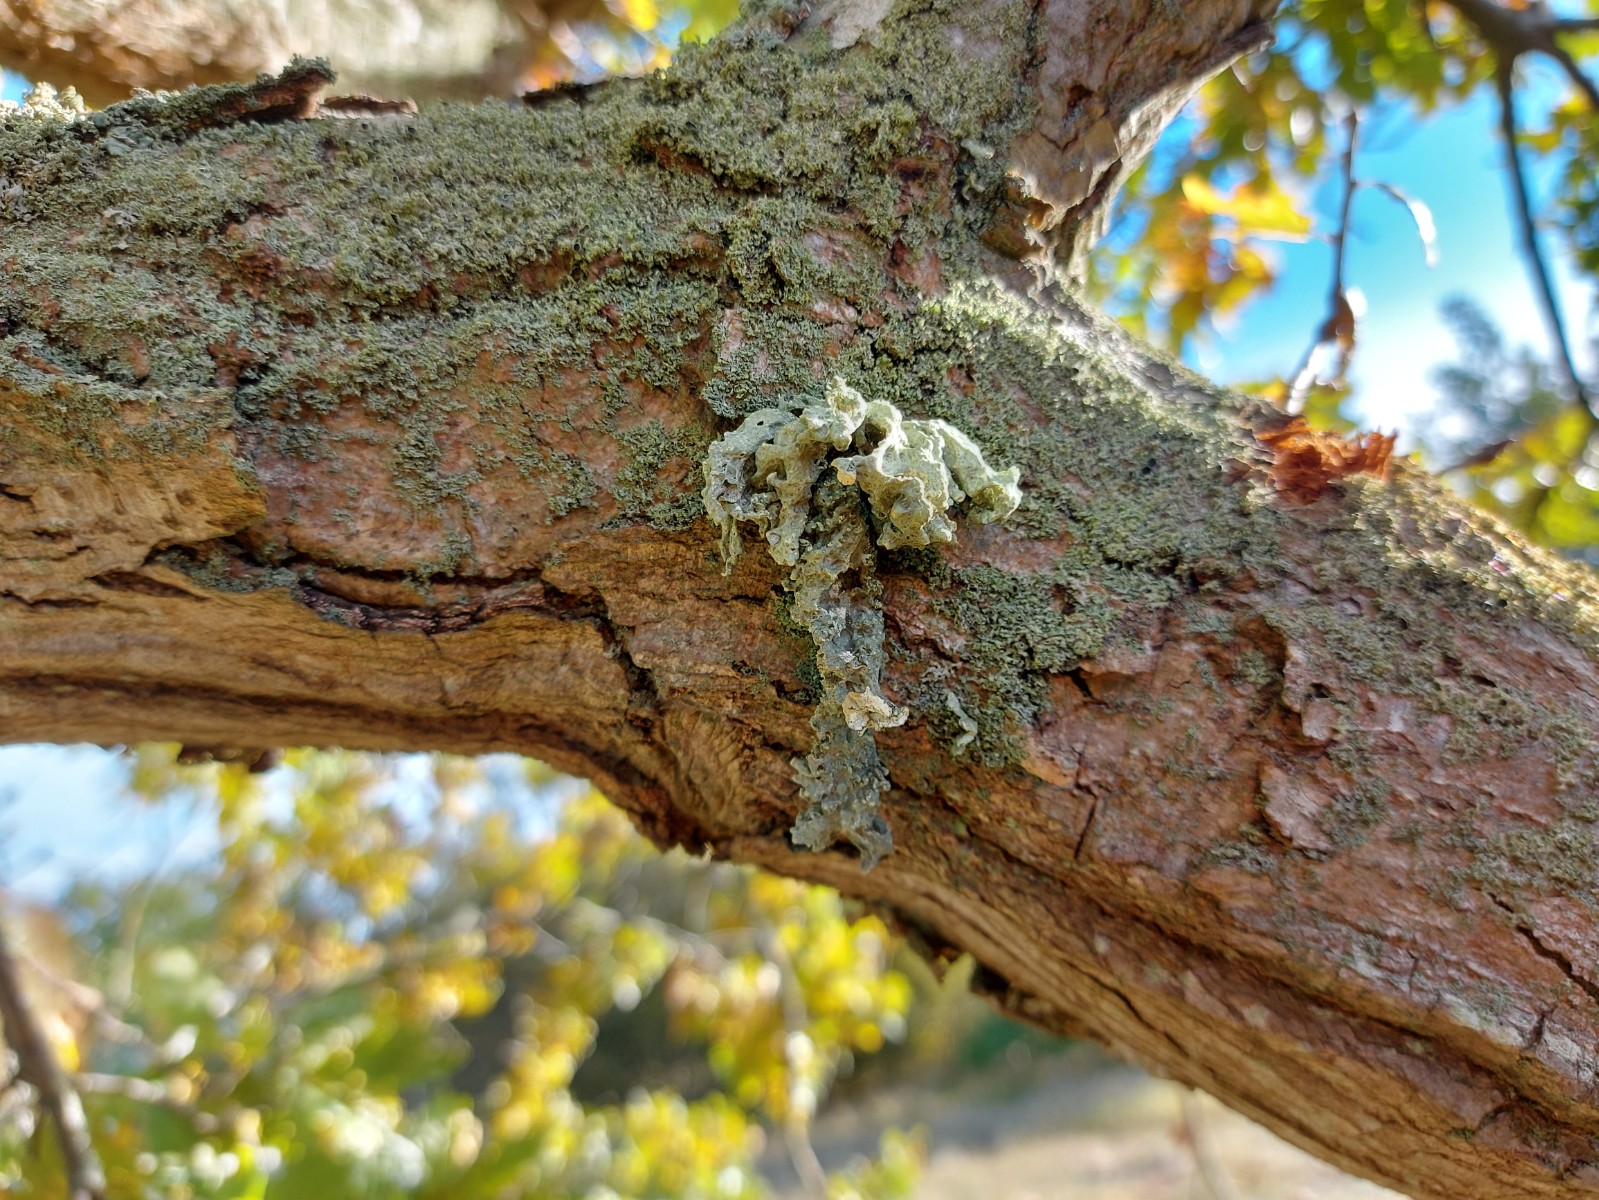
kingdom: Fungi
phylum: Ascomycota
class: Lecanoromycetes
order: Lecanorales
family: Ramalinaceae
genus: Ramalina
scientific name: Ramalina fraxinea
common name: stor grenlav
